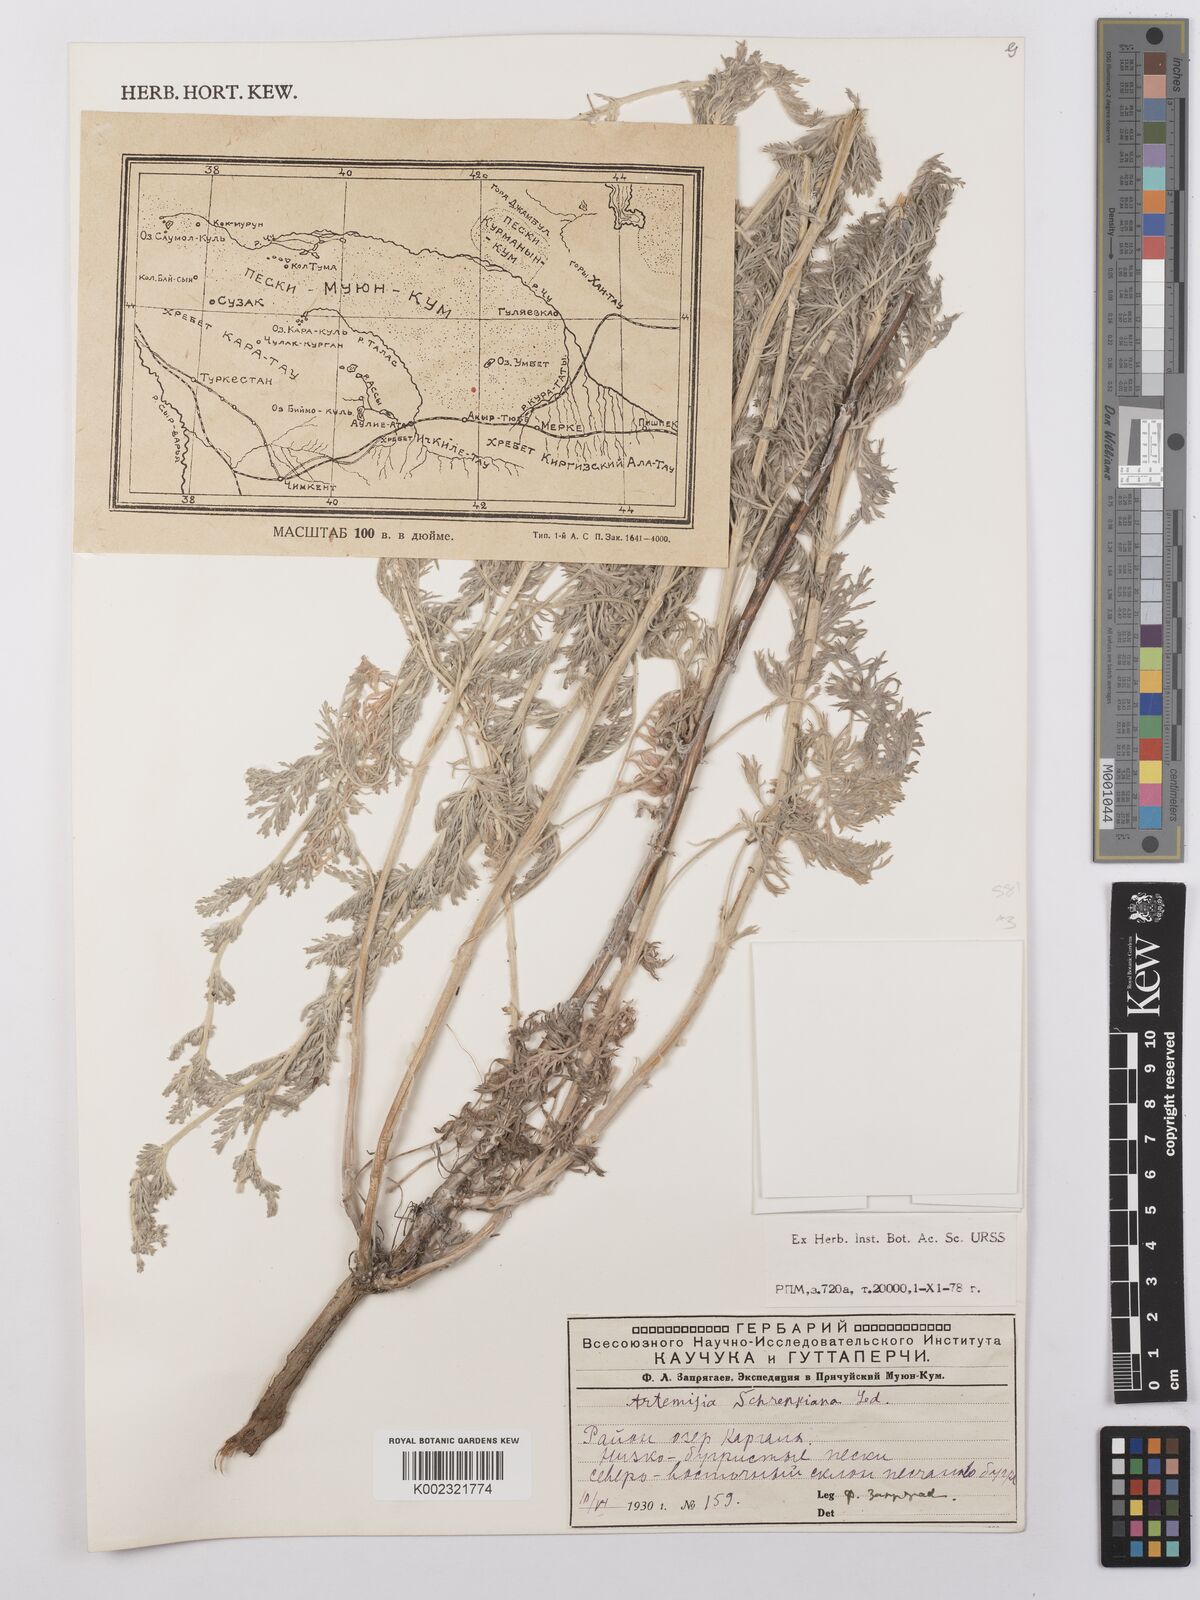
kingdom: Plantae
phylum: Tracheophyta
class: Magnoliopsida
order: Asterales
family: Asteraceae
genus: Artemisia
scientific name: Artemisia schrenkiana
